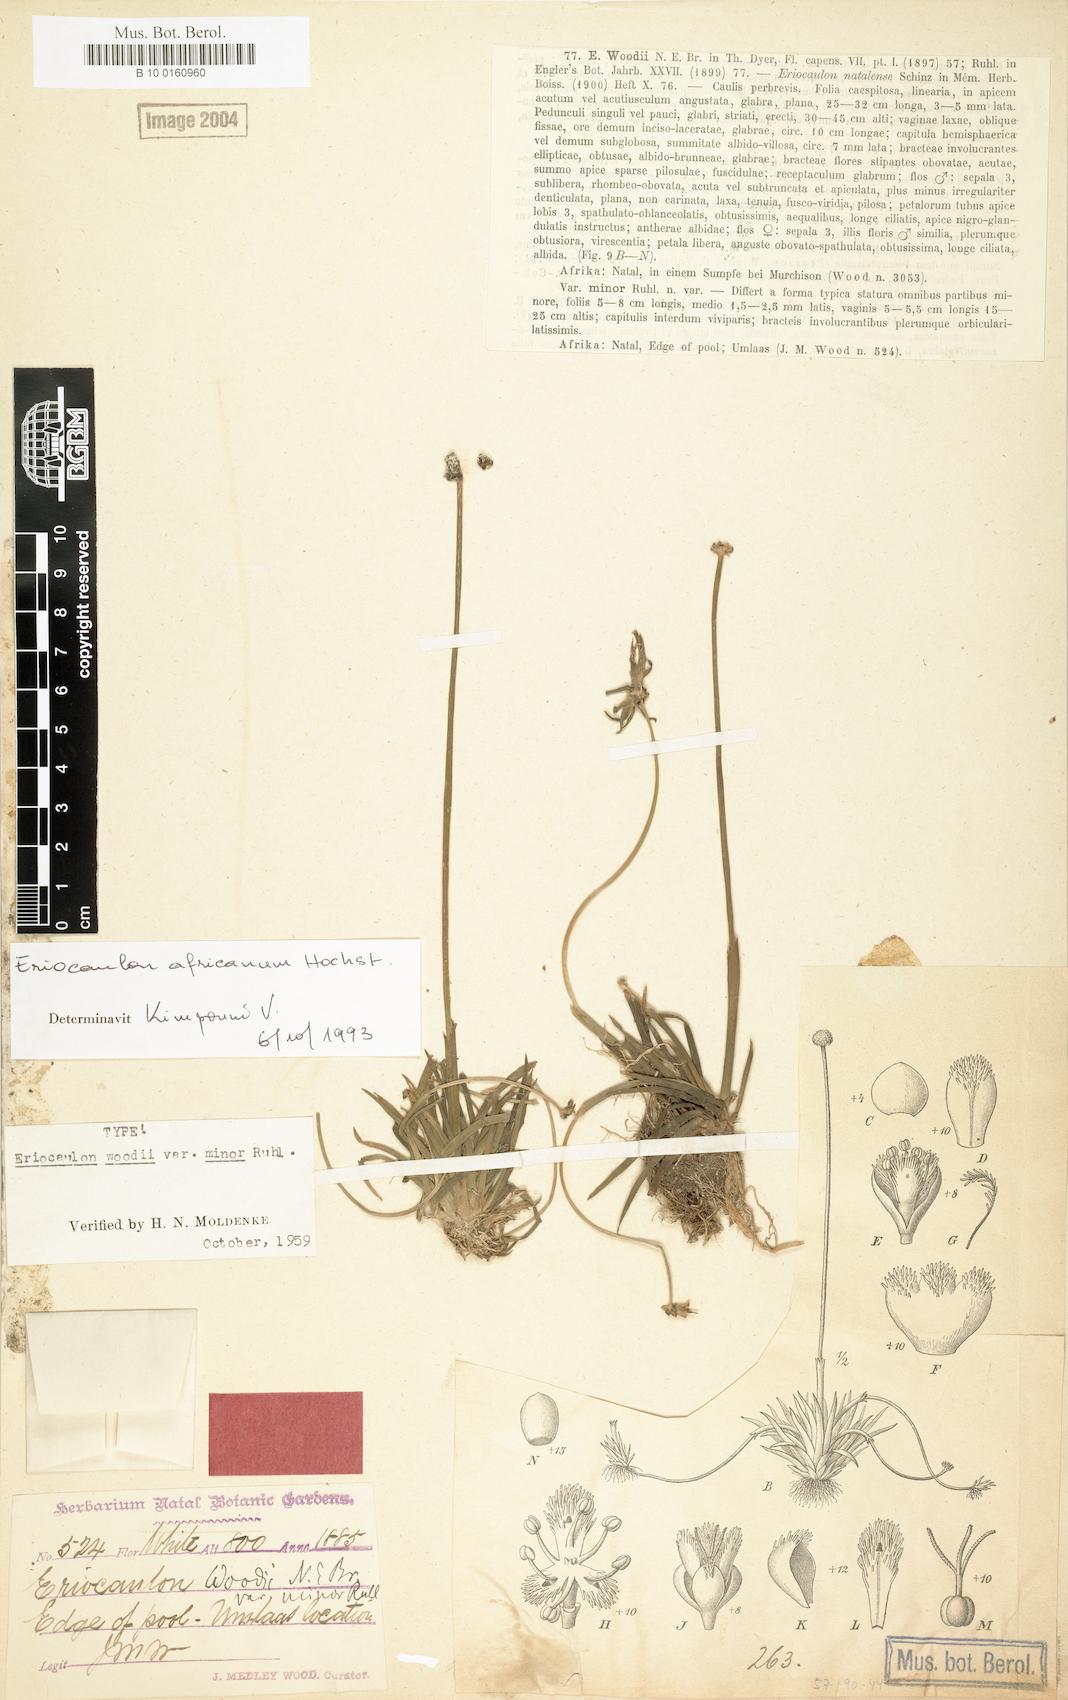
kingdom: Plantae
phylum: Tracheophyta
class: Liliopsida
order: Poales
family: Eriocaulaceae
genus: Eriocaulon
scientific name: Eriocaulon africanum
